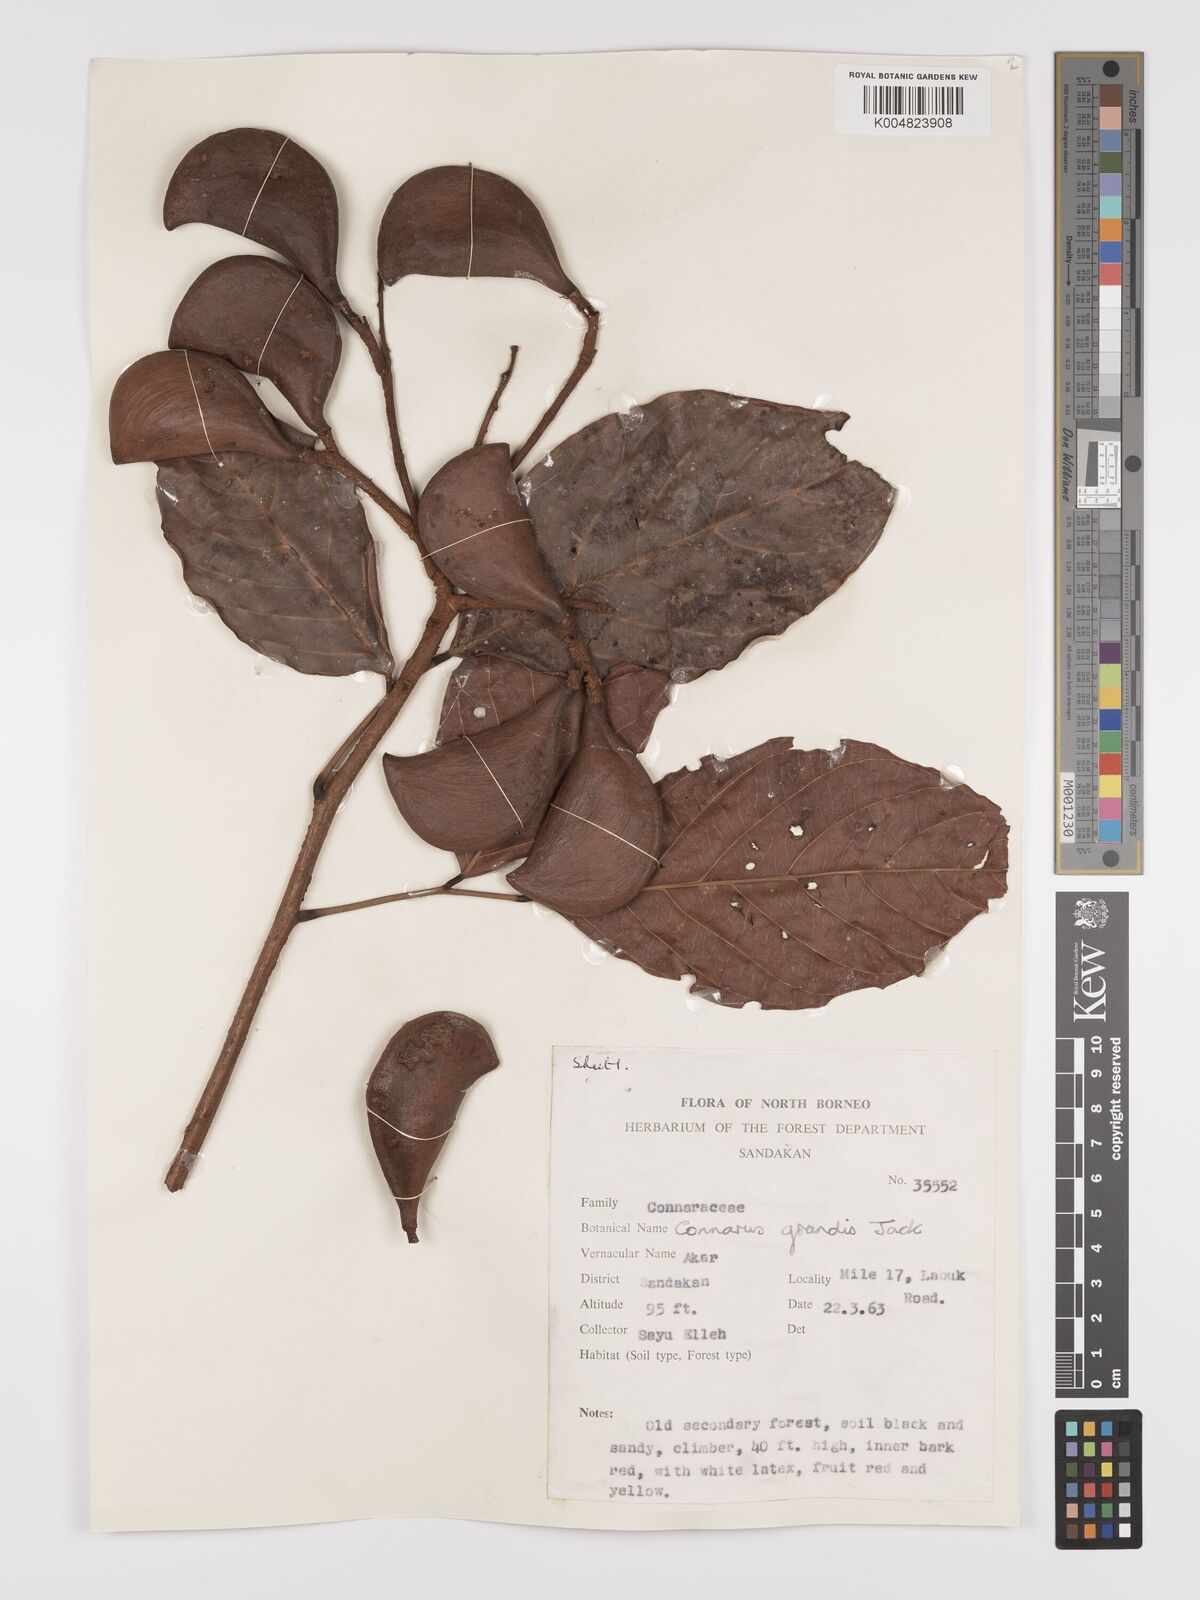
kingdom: Plantae
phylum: Tracheophyta
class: Magnoliopsida
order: Oxalidales
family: Connaraceae
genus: Connarus
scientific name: Connarus grandis
